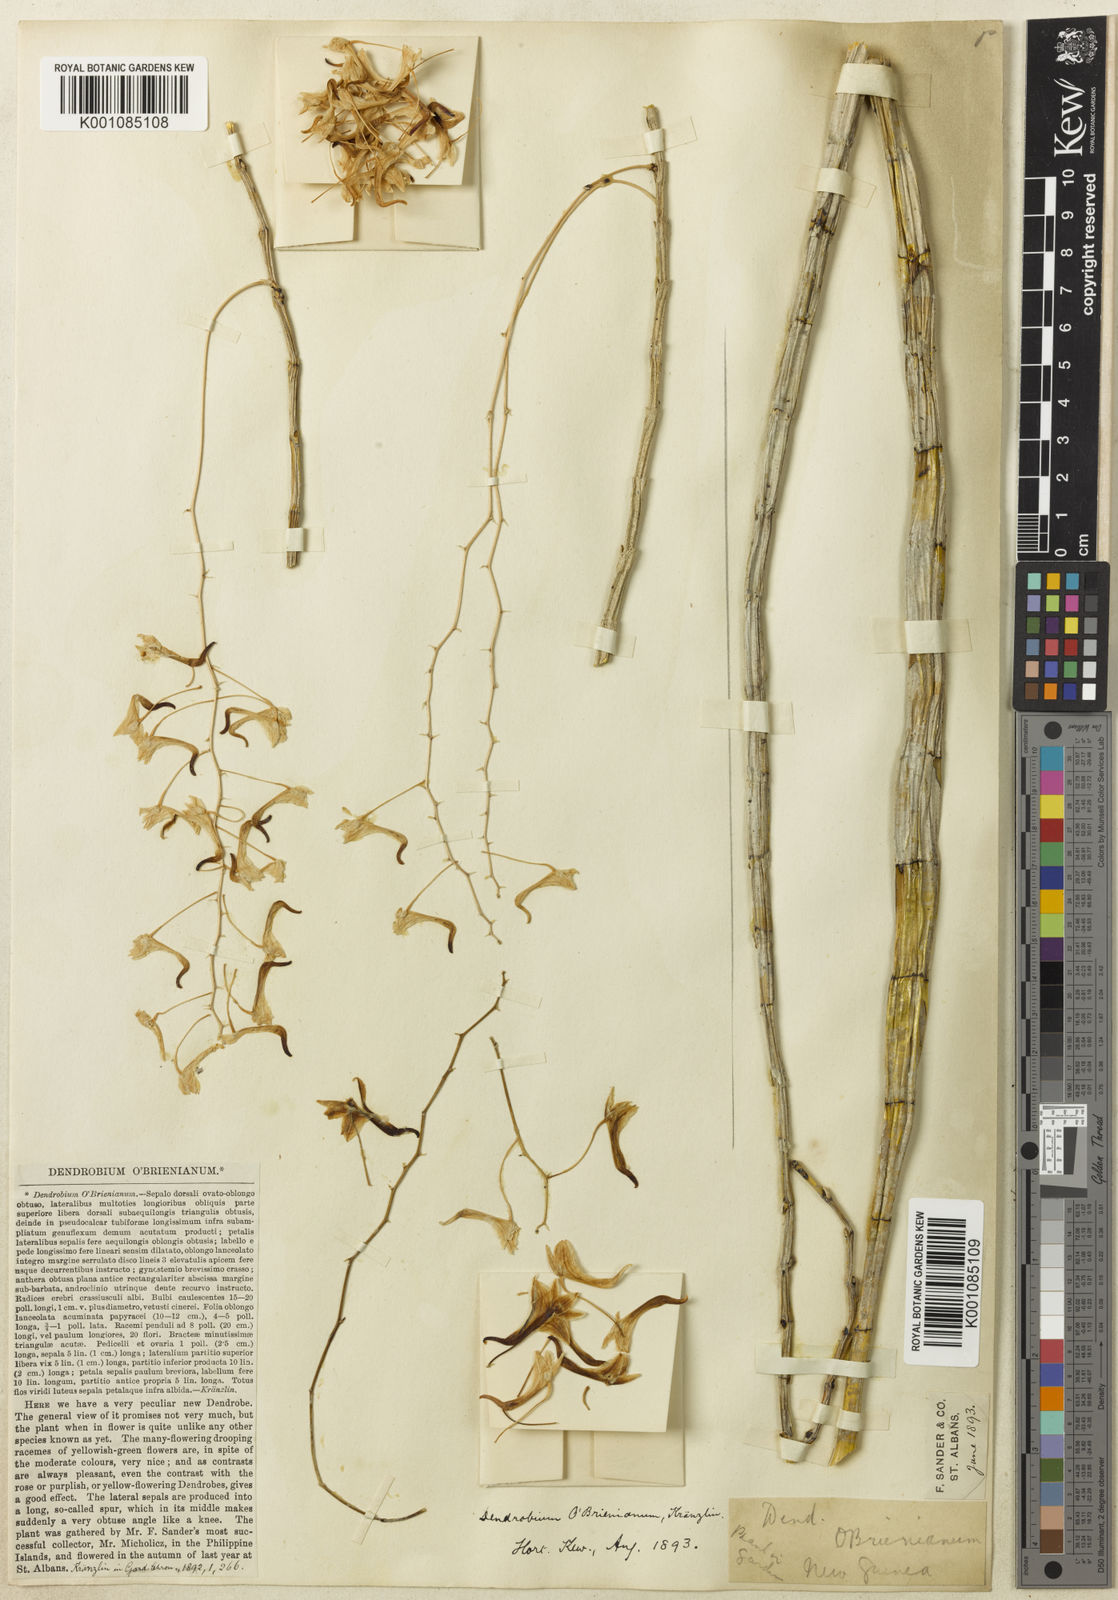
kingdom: Plantae
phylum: Tracheophyta
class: Liliopsida
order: Asparagales
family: Orchidaceae
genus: Dendrobium
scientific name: Dendrobium ceraula
